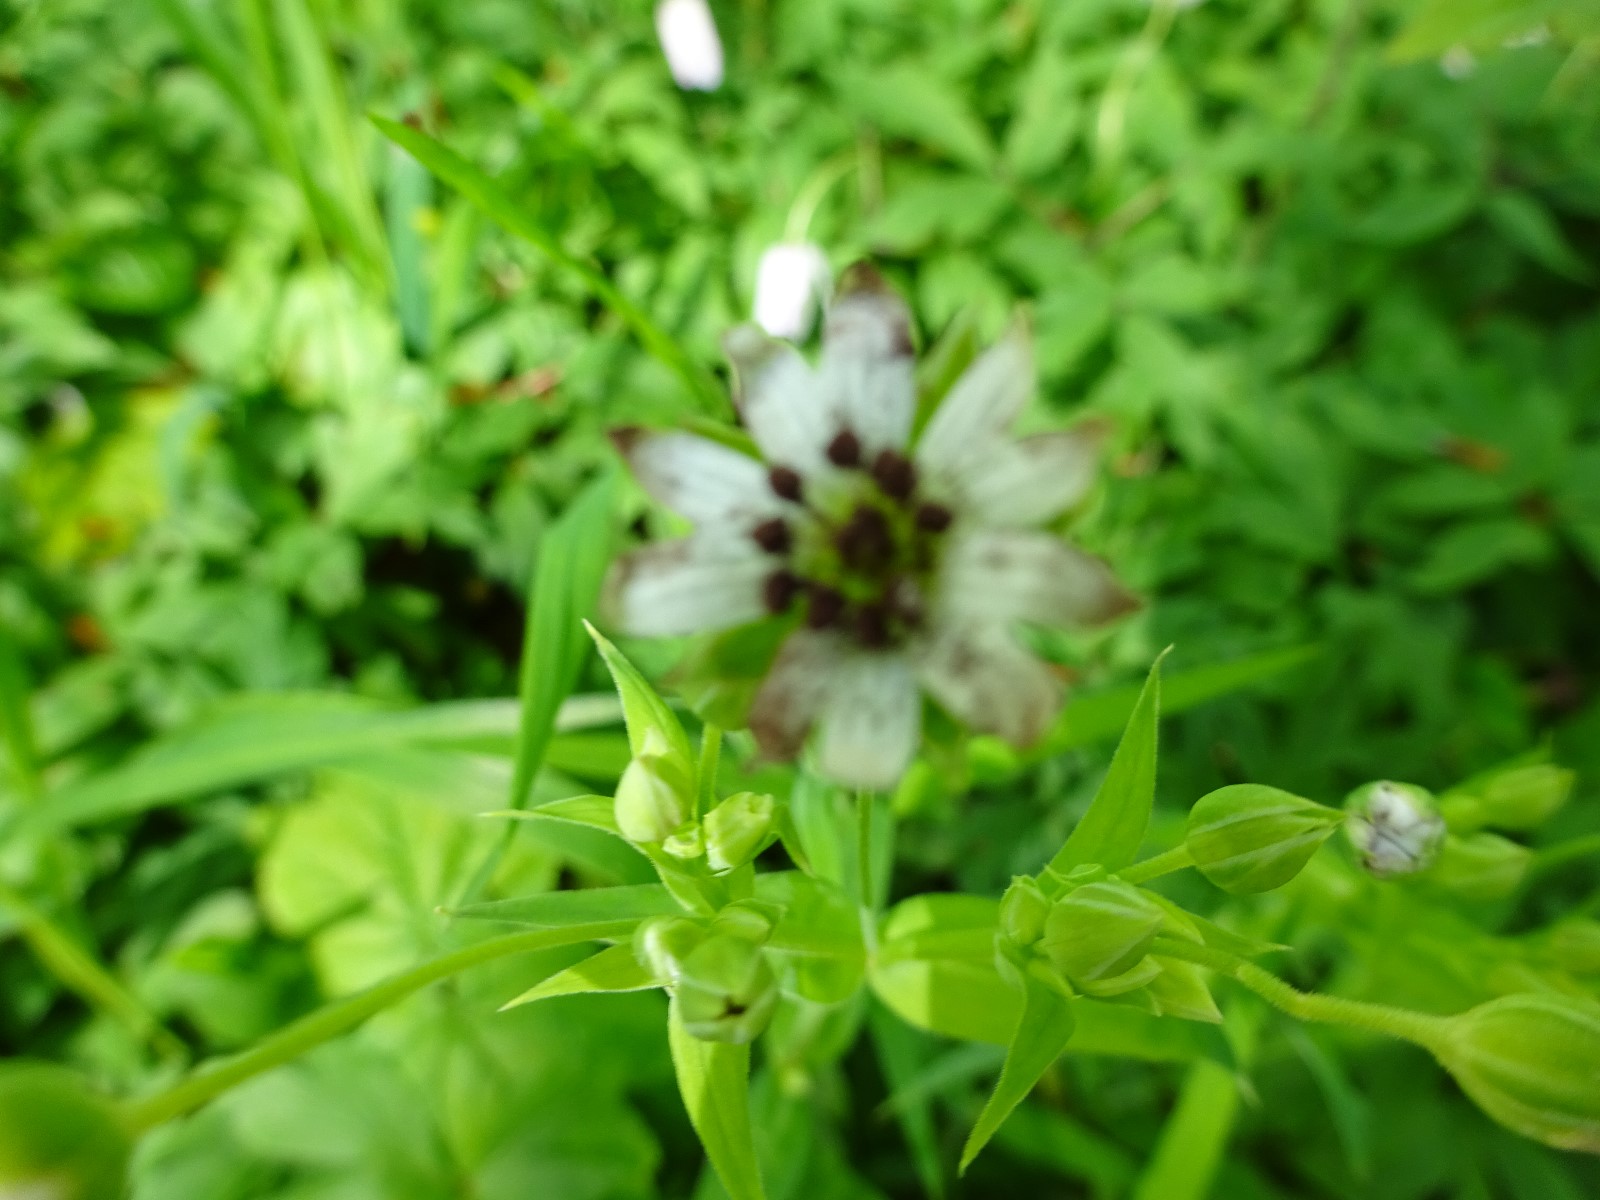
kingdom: Fungi
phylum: Basidiomycota
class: Microbotryomycetes
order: Microbotryales
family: Microbotryaceae
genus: Microbotryum
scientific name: Microbotryum stellariae
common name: fladstjerne-støvbladrust
